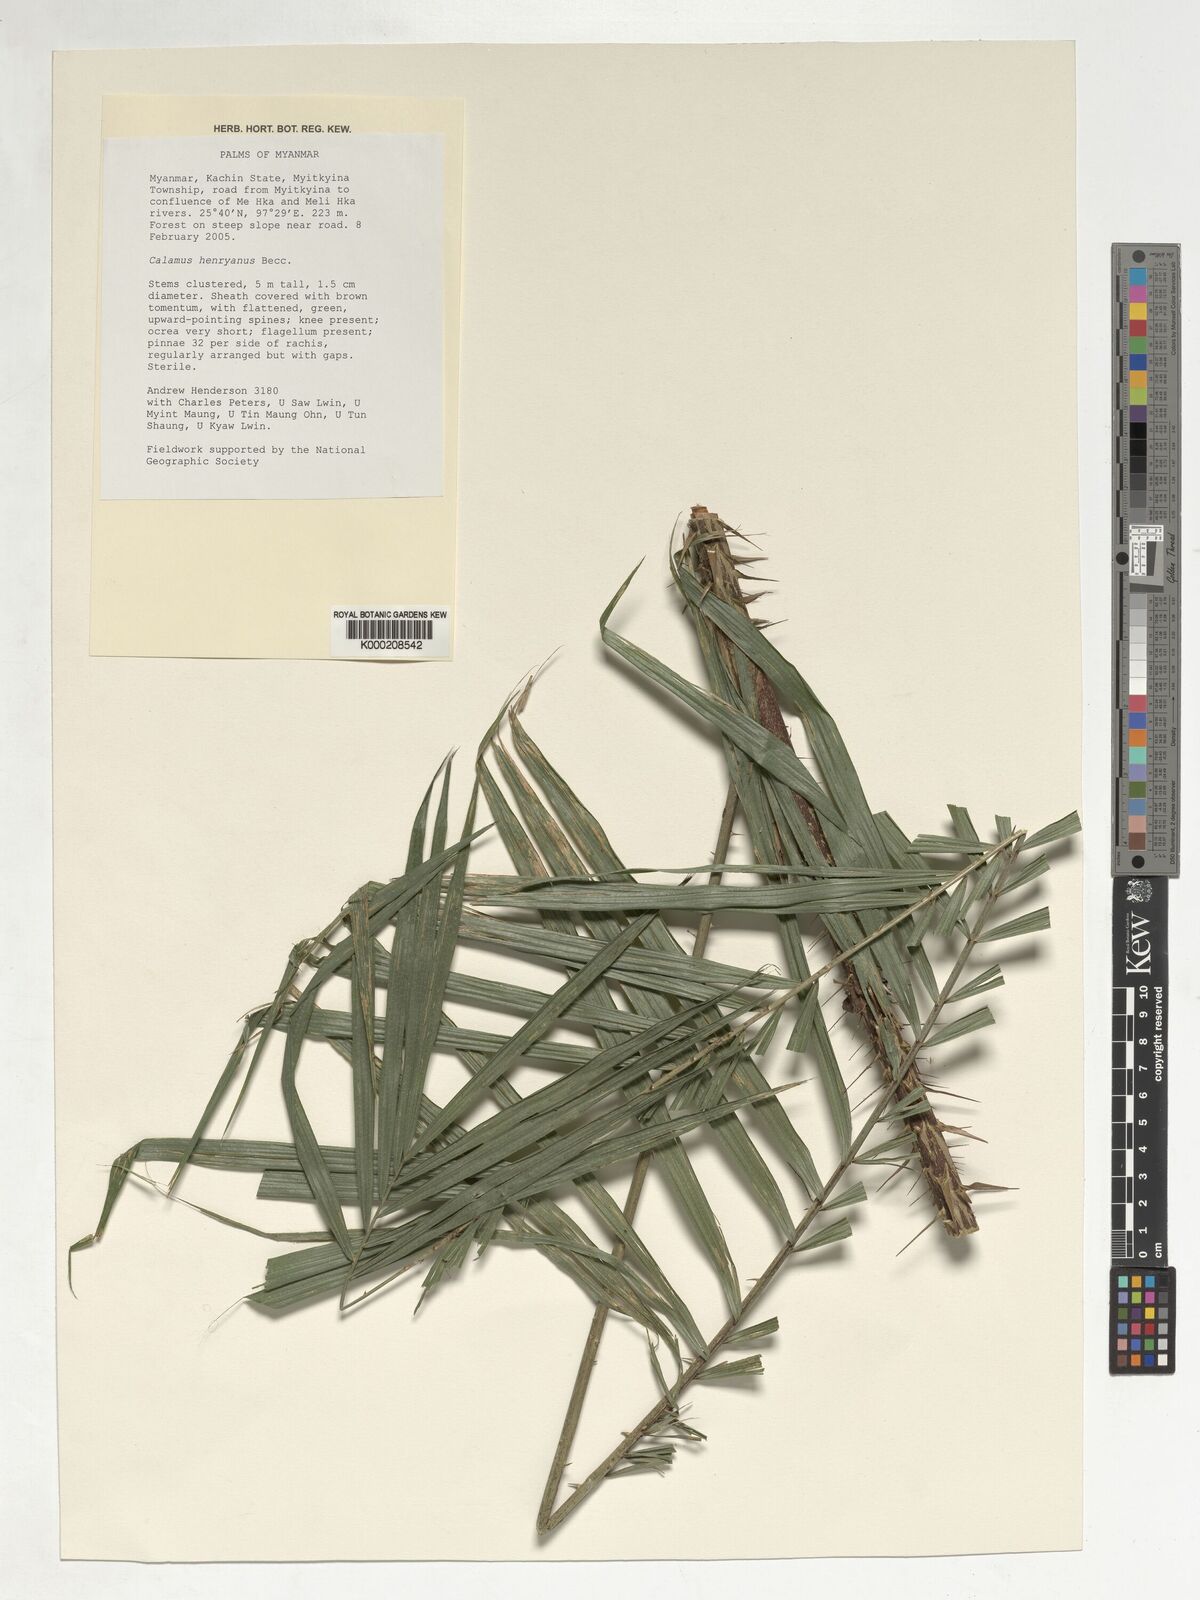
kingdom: Plantae
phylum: Tracheophyta
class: Liliopsida
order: Arecales
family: Arecaceae
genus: Calamus
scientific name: Calamus henryanus
